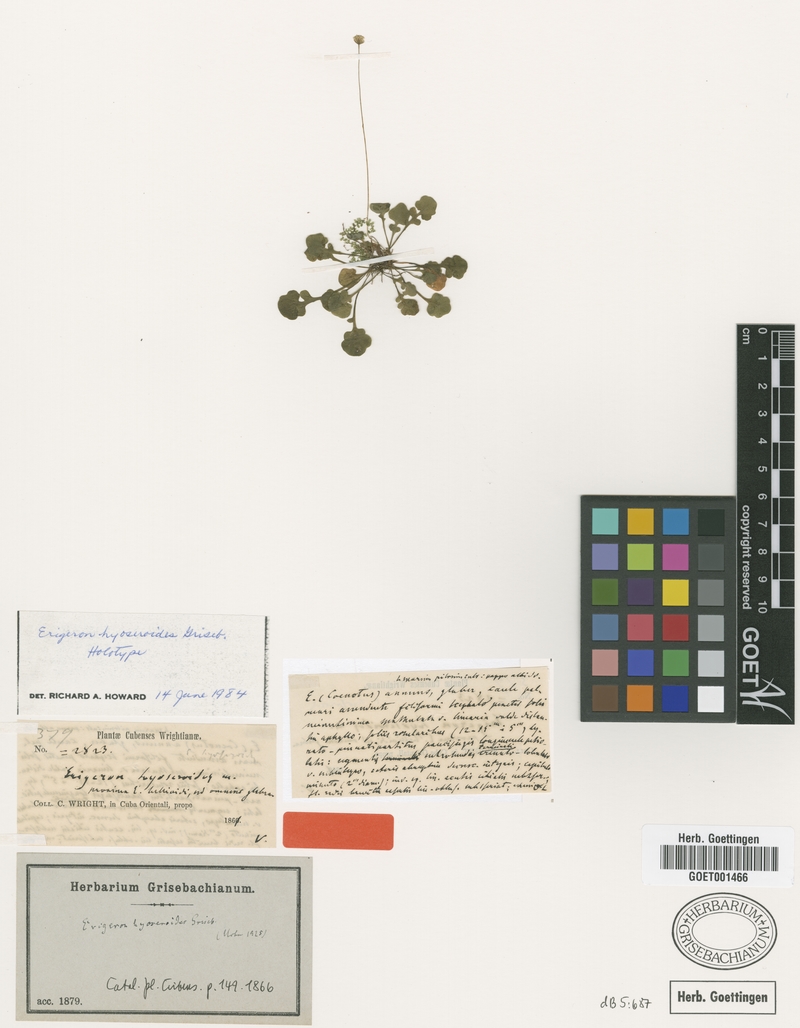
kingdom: Plantae
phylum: Tracheophyta
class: Magnoliopsida
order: Asterales
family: Asteraceae
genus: Erigeron
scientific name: Erigeron hyoseroides
